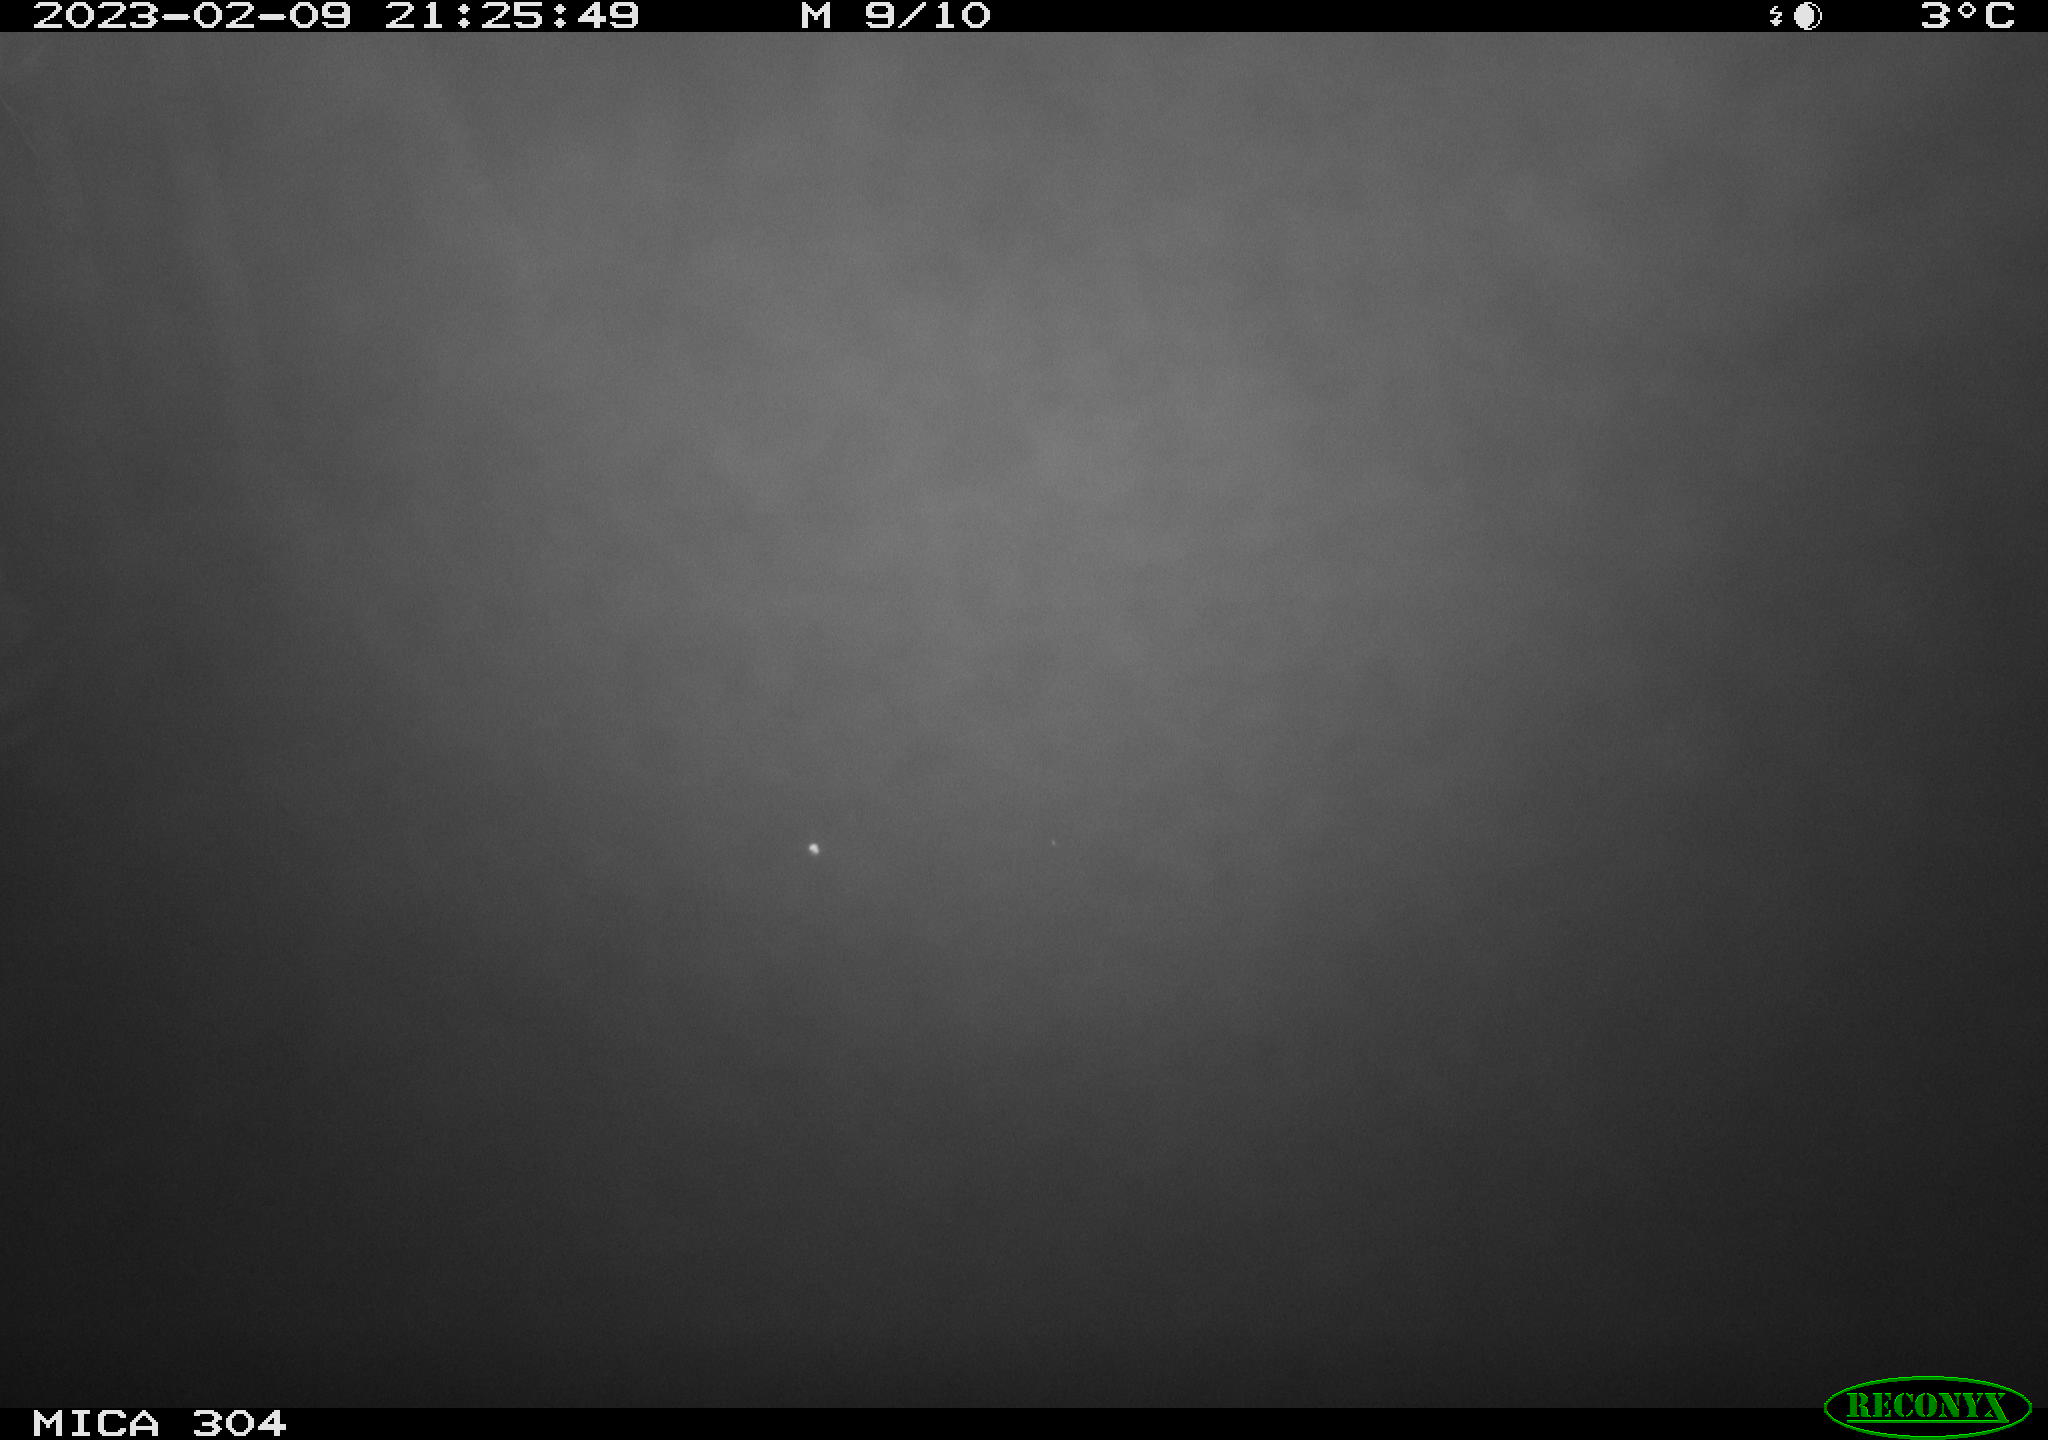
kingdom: Animalia
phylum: Chordata
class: Mammalia
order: Rodentia
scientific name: Rodentia
